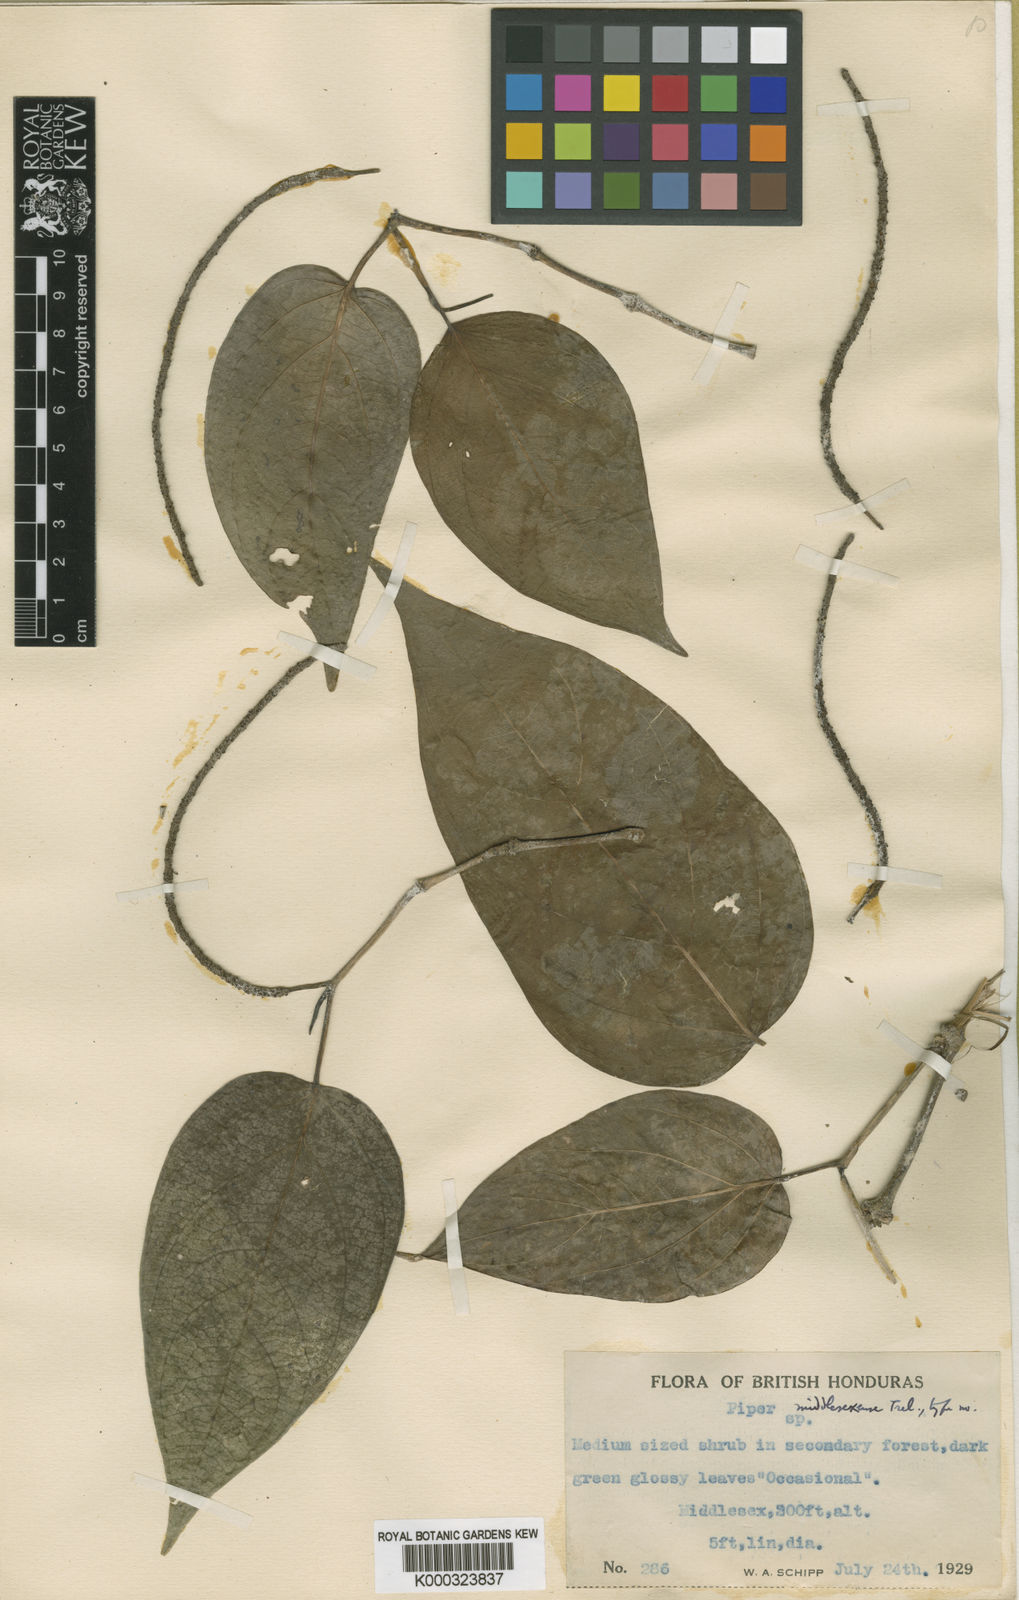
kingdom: Plantae
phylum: Tracheophyta
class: Magnoliopsida
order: Piperales
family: Piperaceae
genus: Piper
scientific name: Piper schiedeanum
